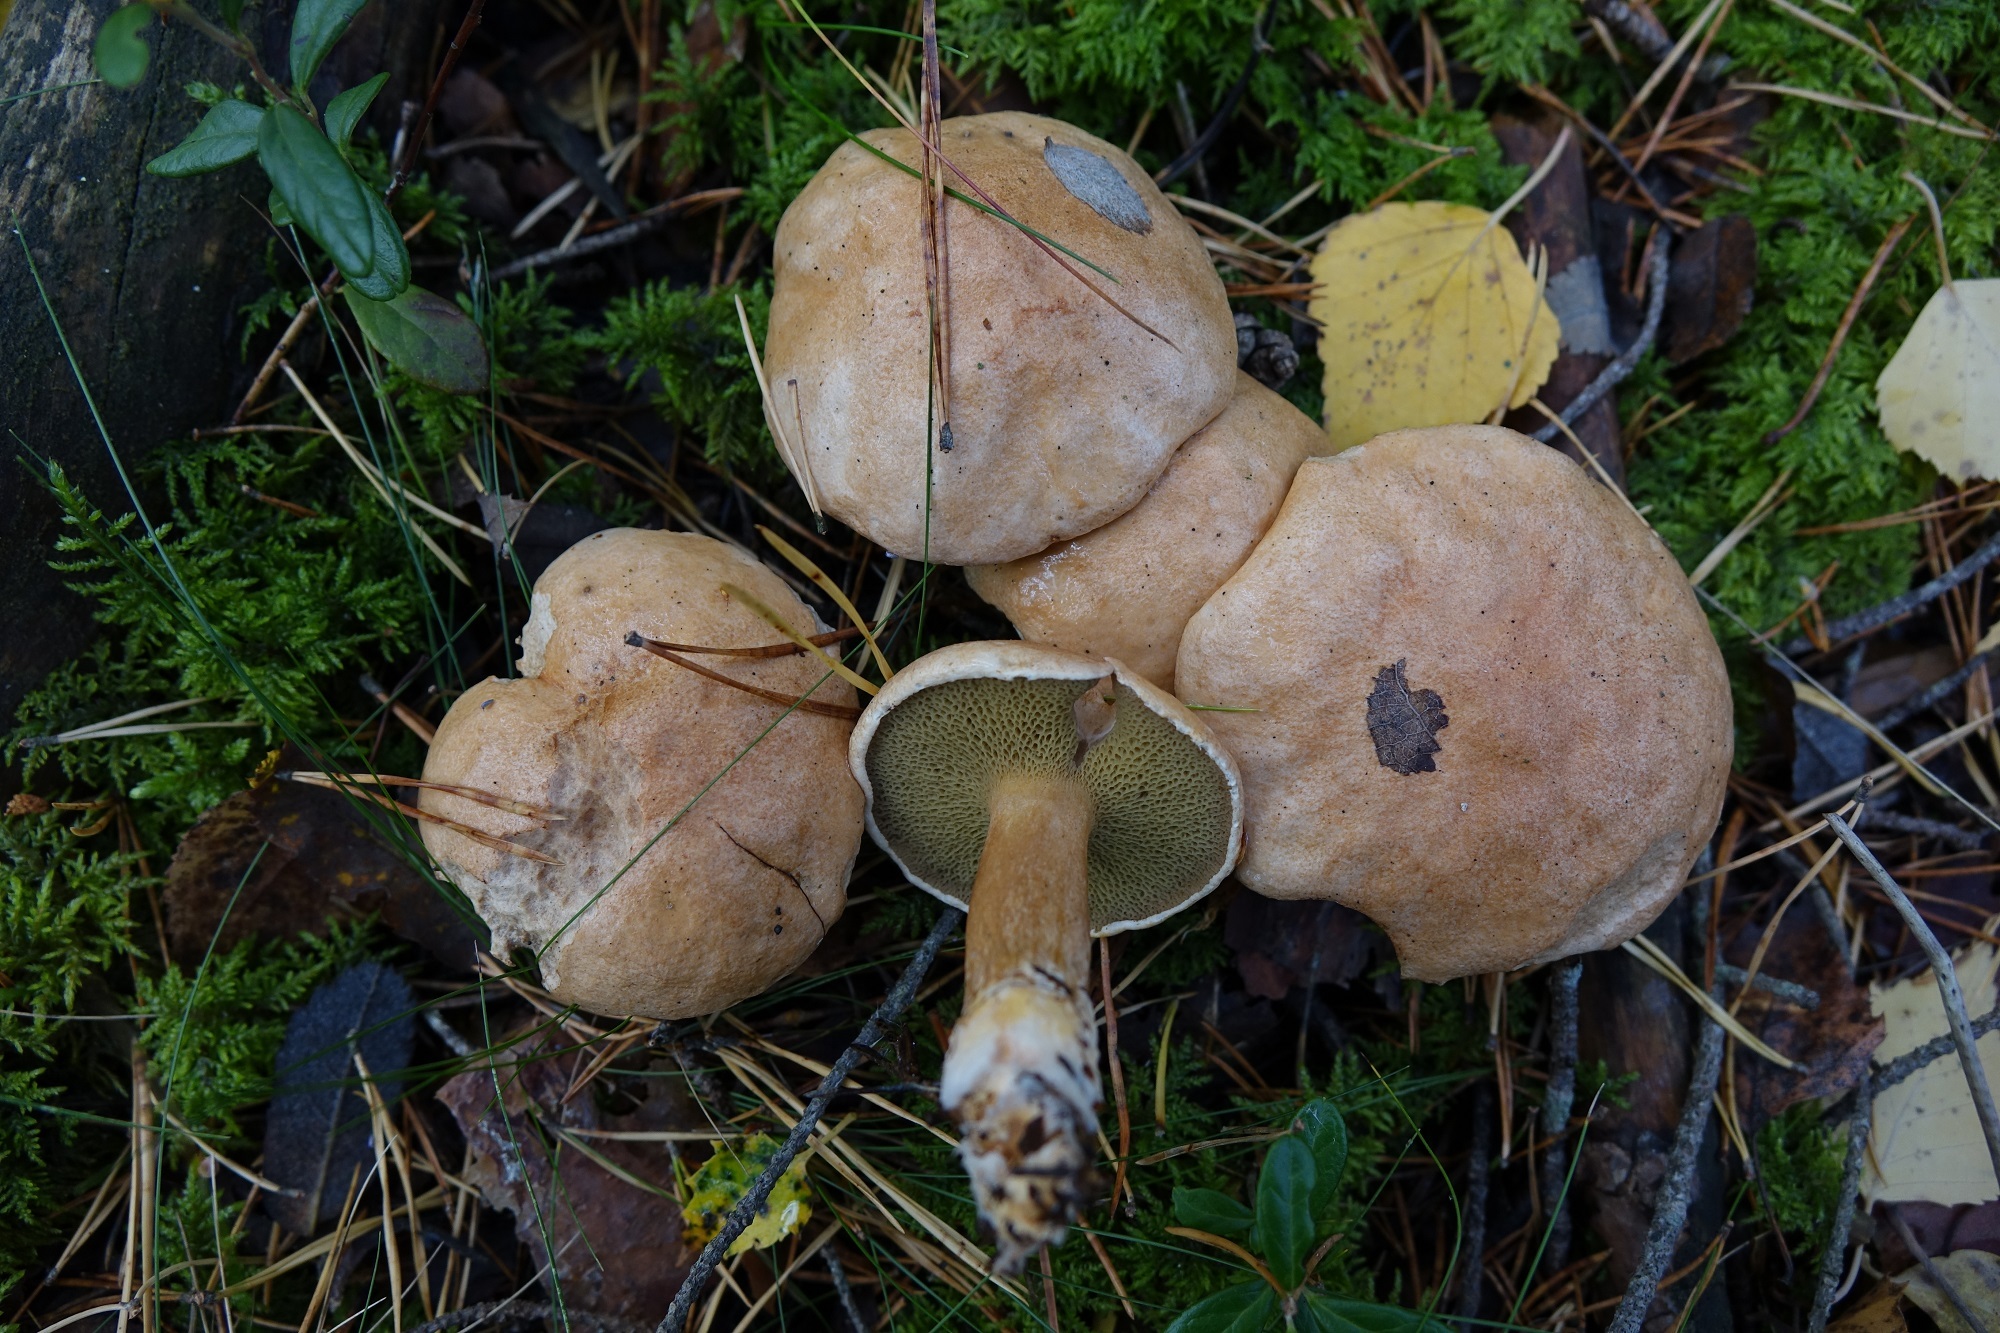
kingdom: Fungi
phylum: Basidiomycota
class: Agaricomycetes
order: Boletales
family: Suillaceae
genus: Suillus
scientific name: Suillus bovinus
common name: Bovine bolete
